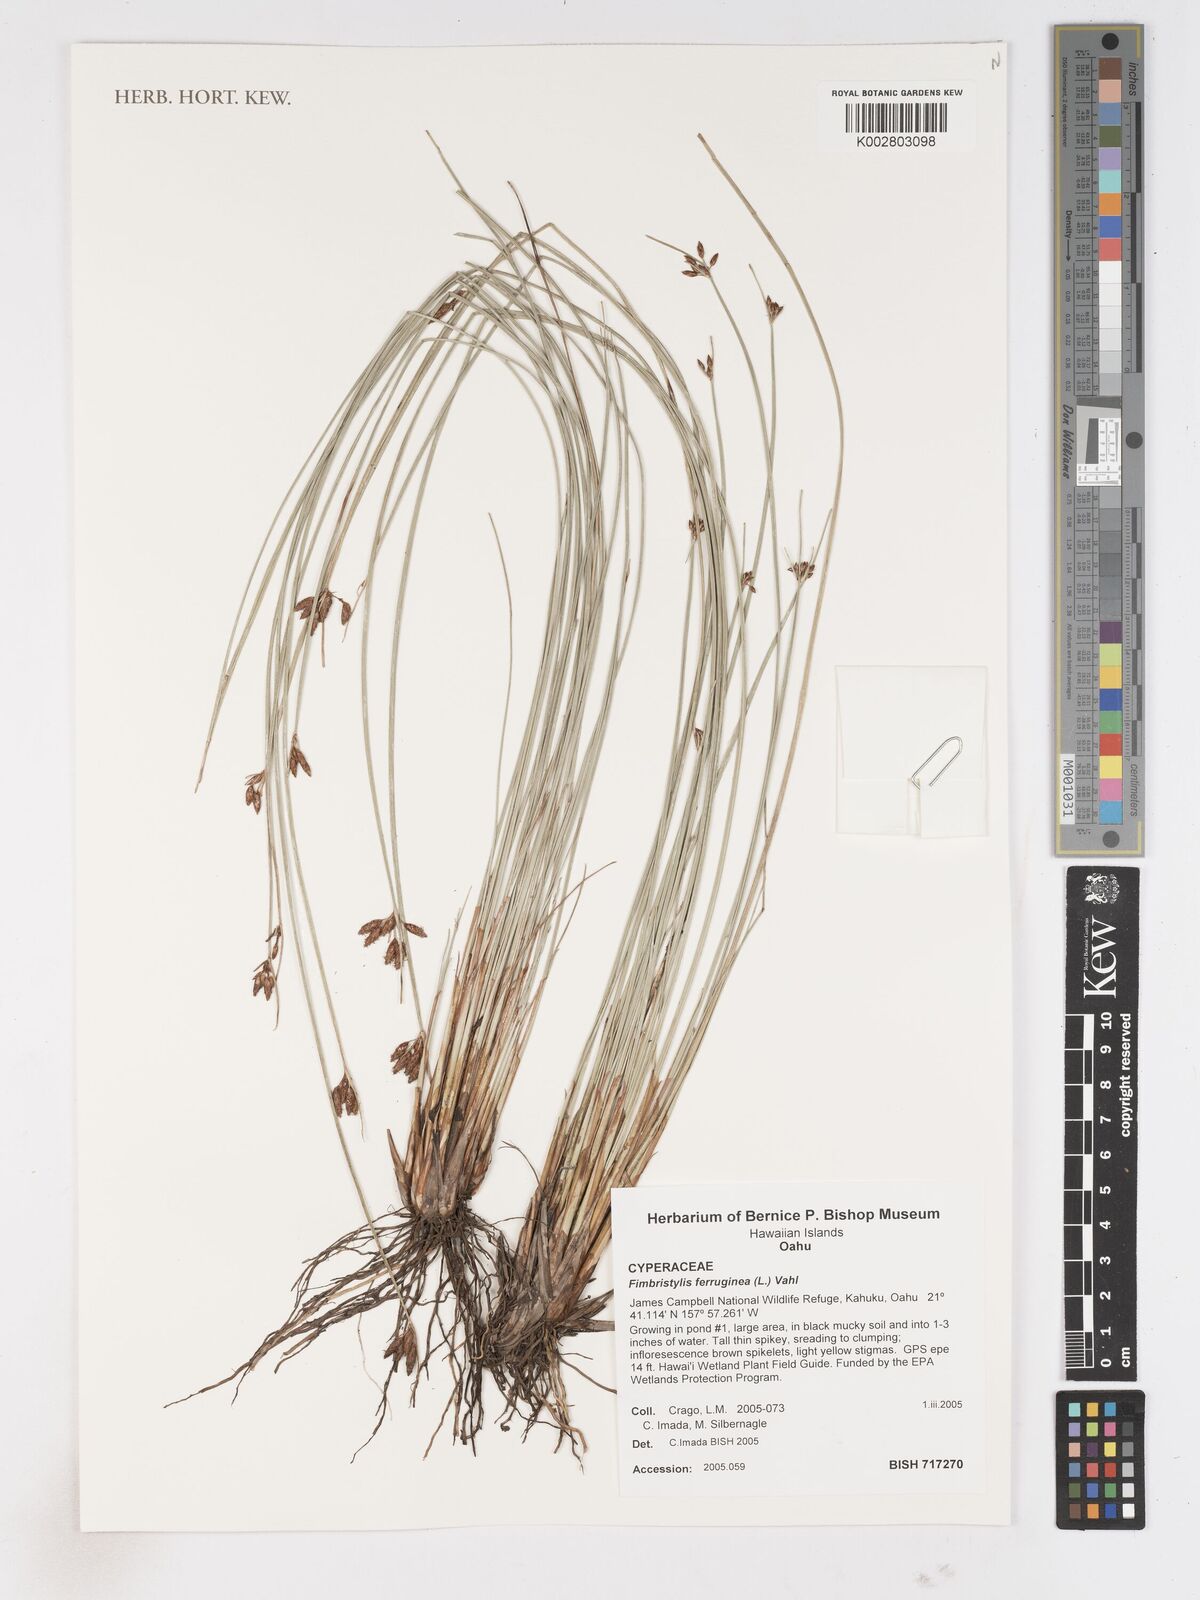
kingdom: Plantae
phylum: Tracheophyta
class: Liliopsida
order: Poales
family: Cyperaceae
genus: Fimbristylis
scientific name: Fimbristylis ferruginea
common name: West indian fimbry
